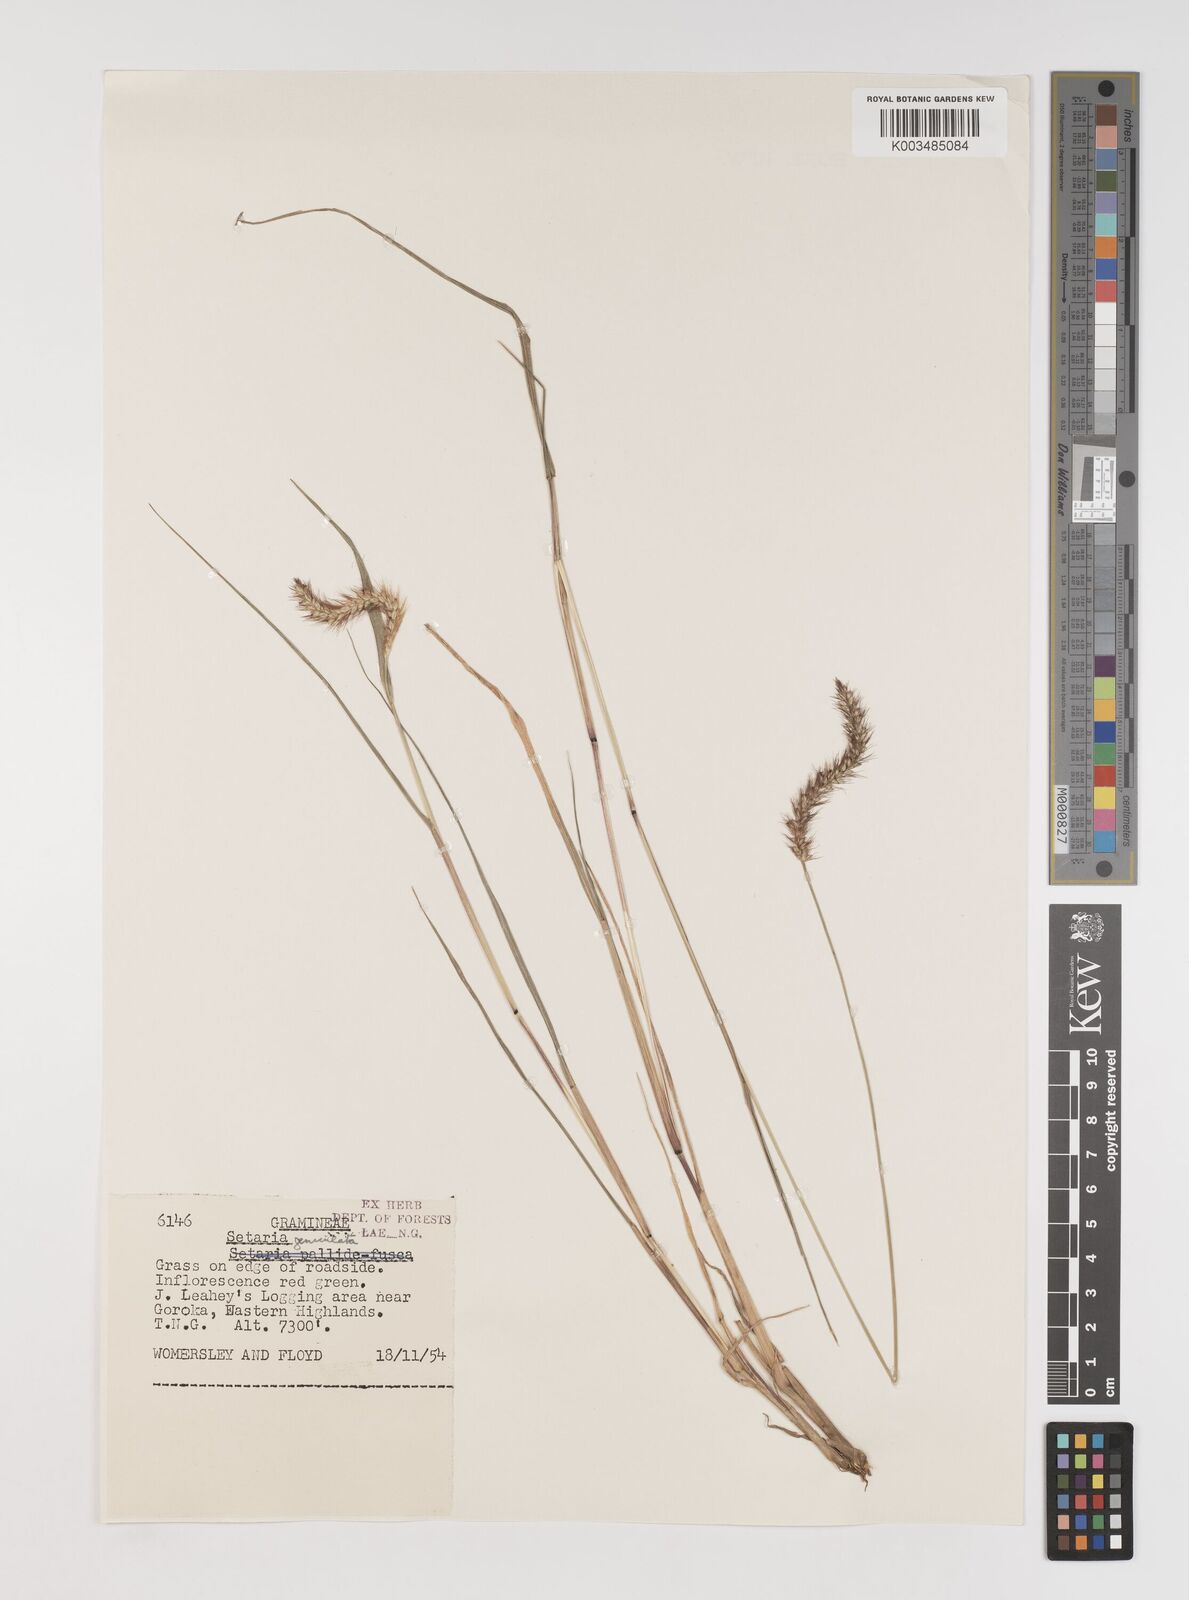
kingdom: Plantae
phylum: Tracheophyta
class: Liliopsida
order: Poales
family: Poaceae
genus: Setaria
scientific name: Setaria parviflora
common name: Knotroot bristle-grass
